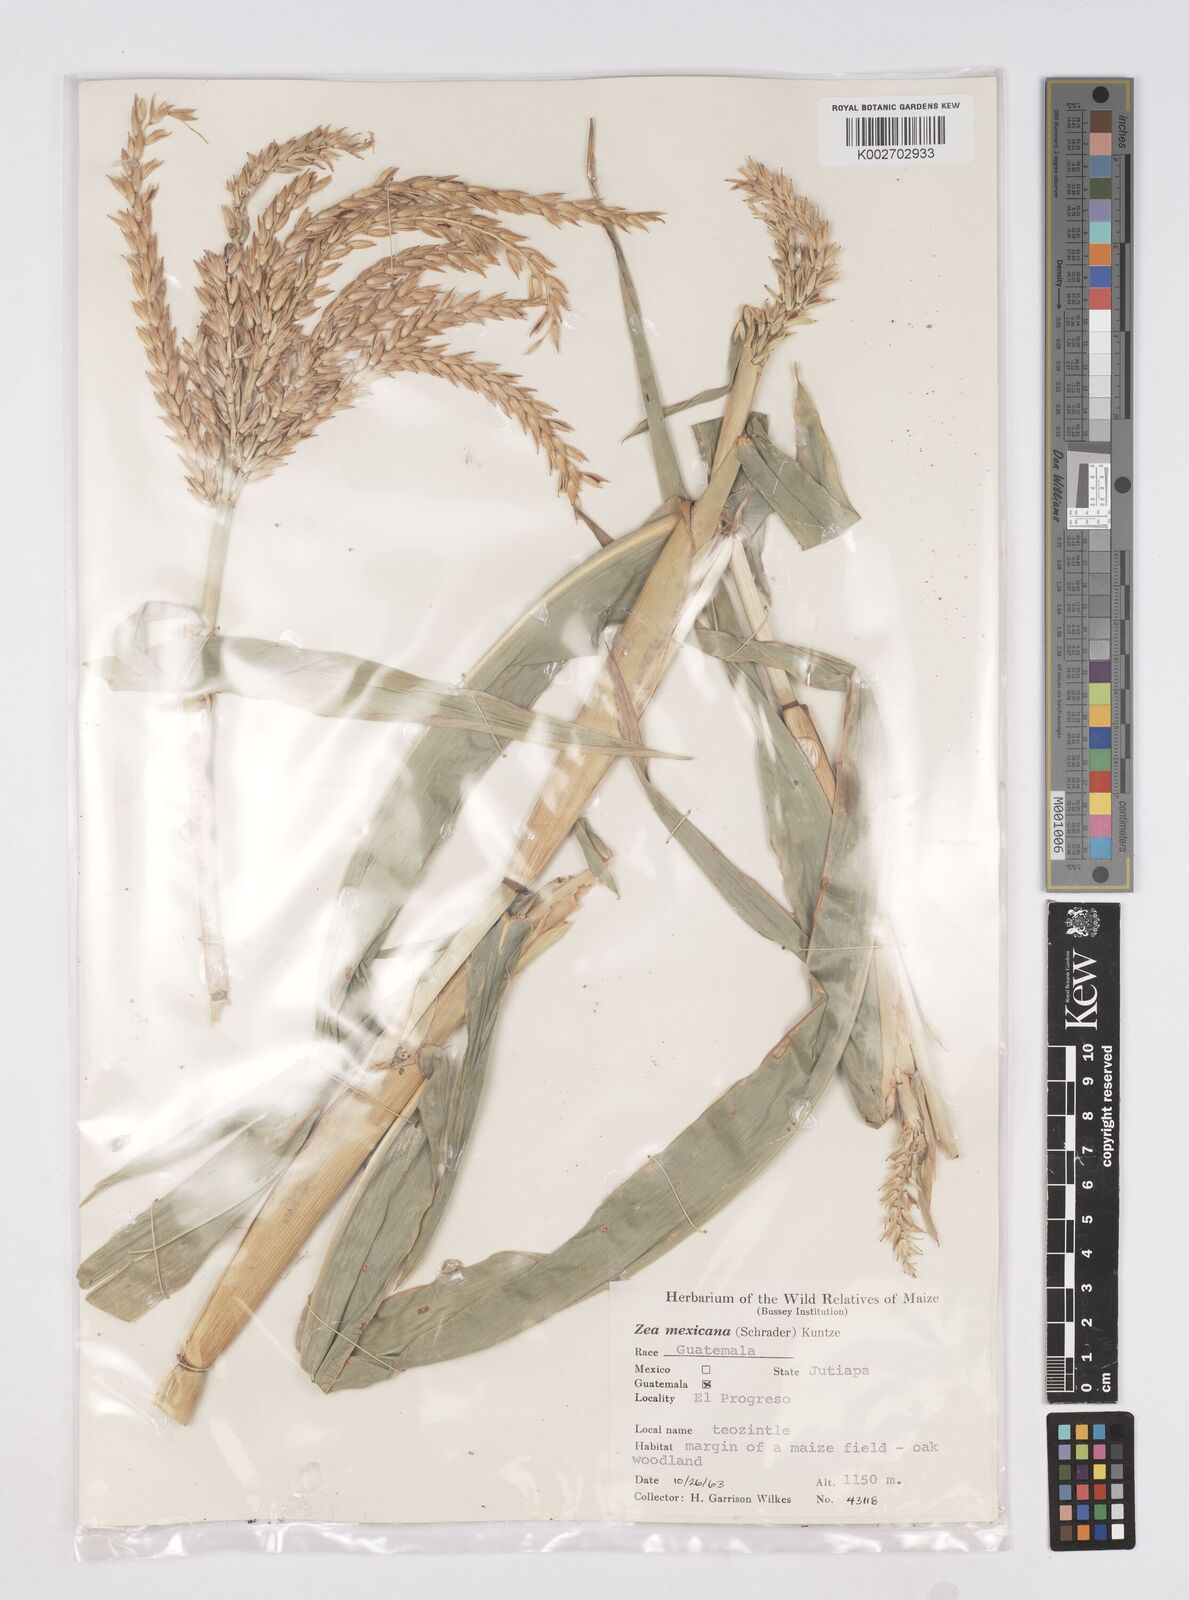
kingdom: Plantae
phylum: Tracheophyta
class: Liliopsida
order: Poales
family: Poaceae
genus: Zea
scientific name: Zea mexicana
